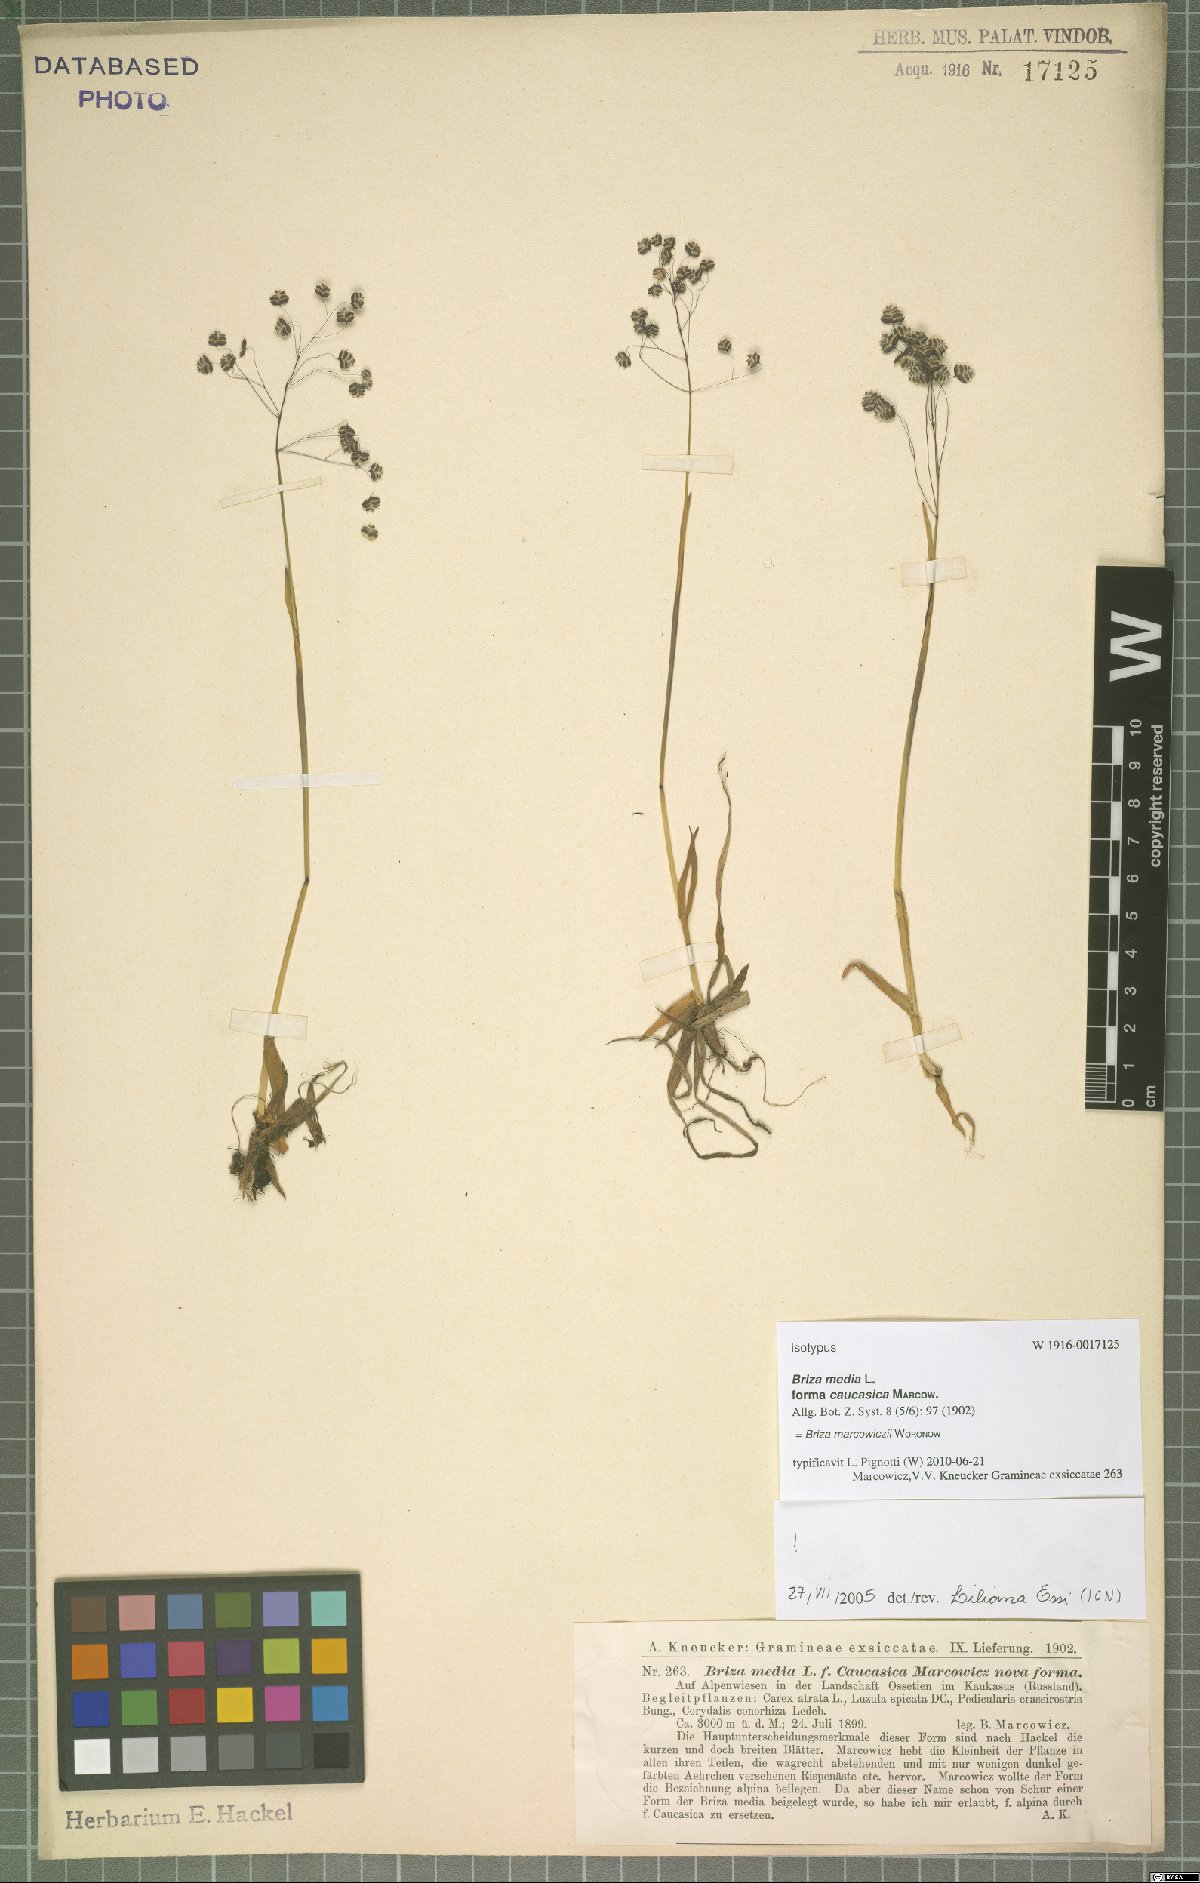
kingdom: Plantae
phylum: Tracheophyta
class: Liliopsida
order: Poales
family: Poaceae
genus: Briza
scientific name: Briza marcowiczii
